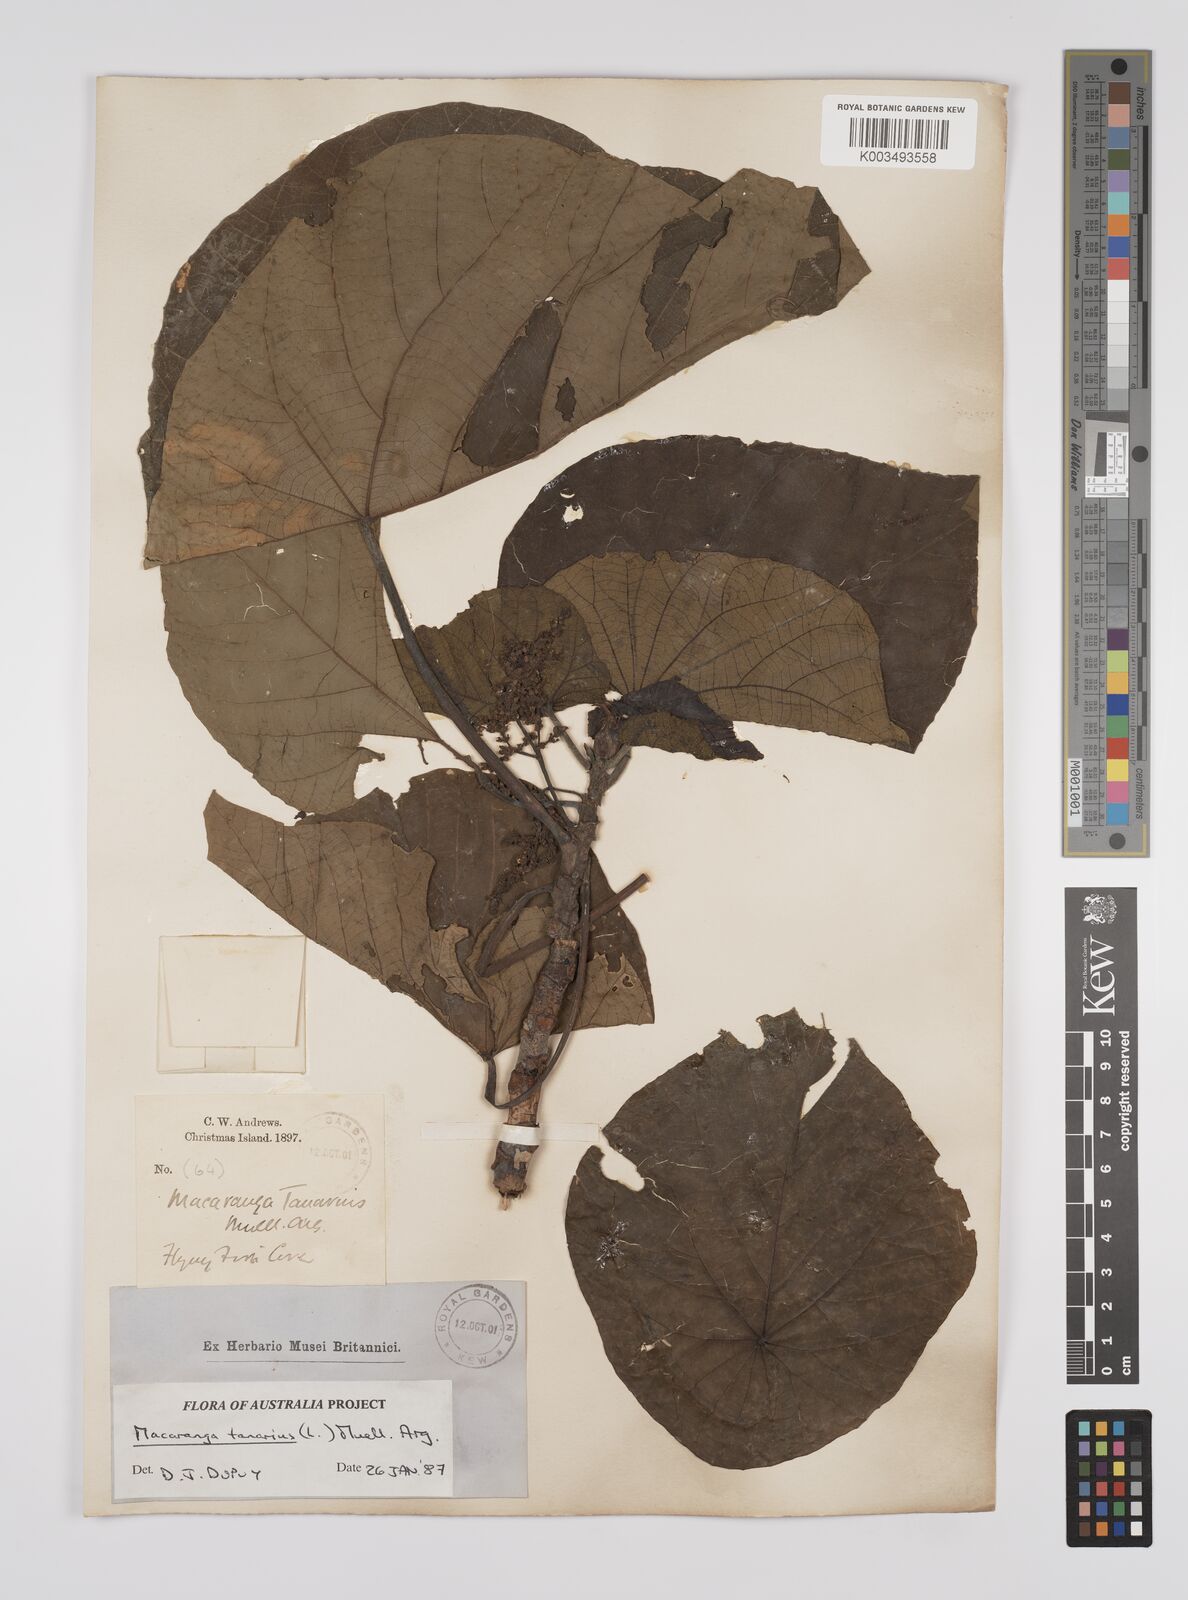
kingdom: Plantae
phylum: Tracheophyta
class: Magnoliopsida
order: Malpighiales
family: Euphorbiaceae
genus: Macaranga
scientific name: Macaranga tanarius
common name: Parasol leaf tree
